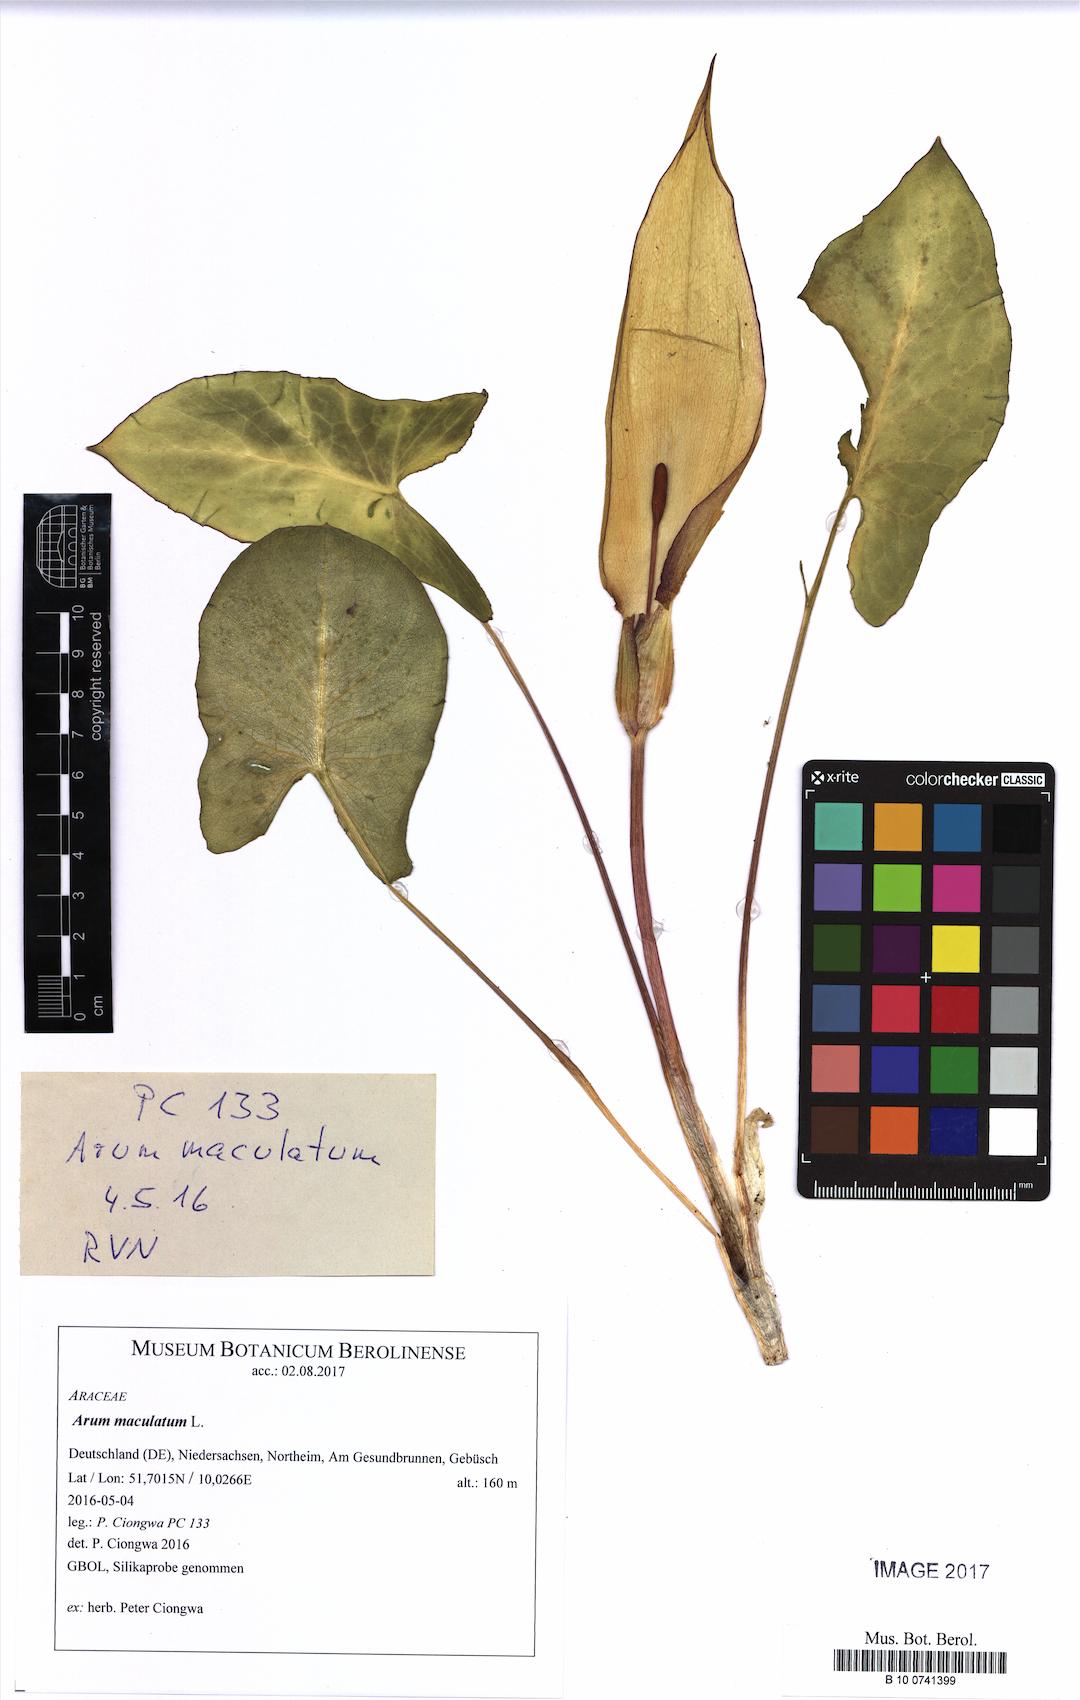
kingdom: Plantae
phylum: Tracheophyta
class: Liliopsida
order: Alismatales
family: Araceae
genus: Arum
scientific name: Arum maculatum
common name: Lords-and-ladies
